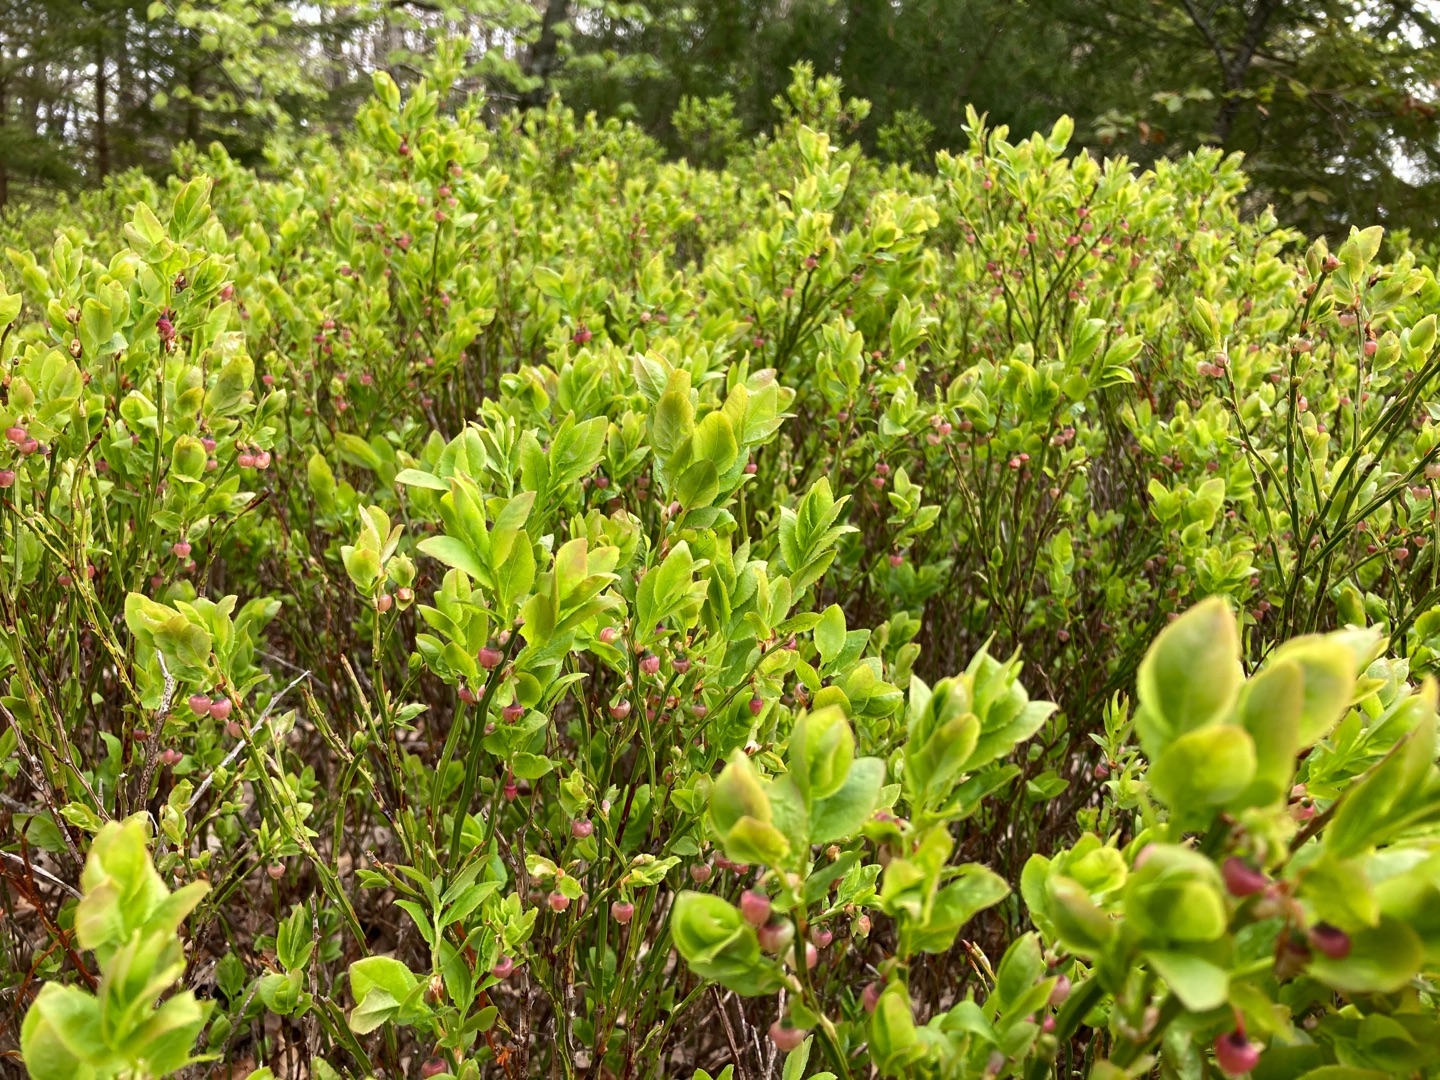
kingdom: Plantae
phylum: Tracheophyta
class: Magnoliopsida
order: Ericales
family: Ericaceae
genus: Vaccinium
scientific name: Vaccinium myrtillus
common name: Blåbær
